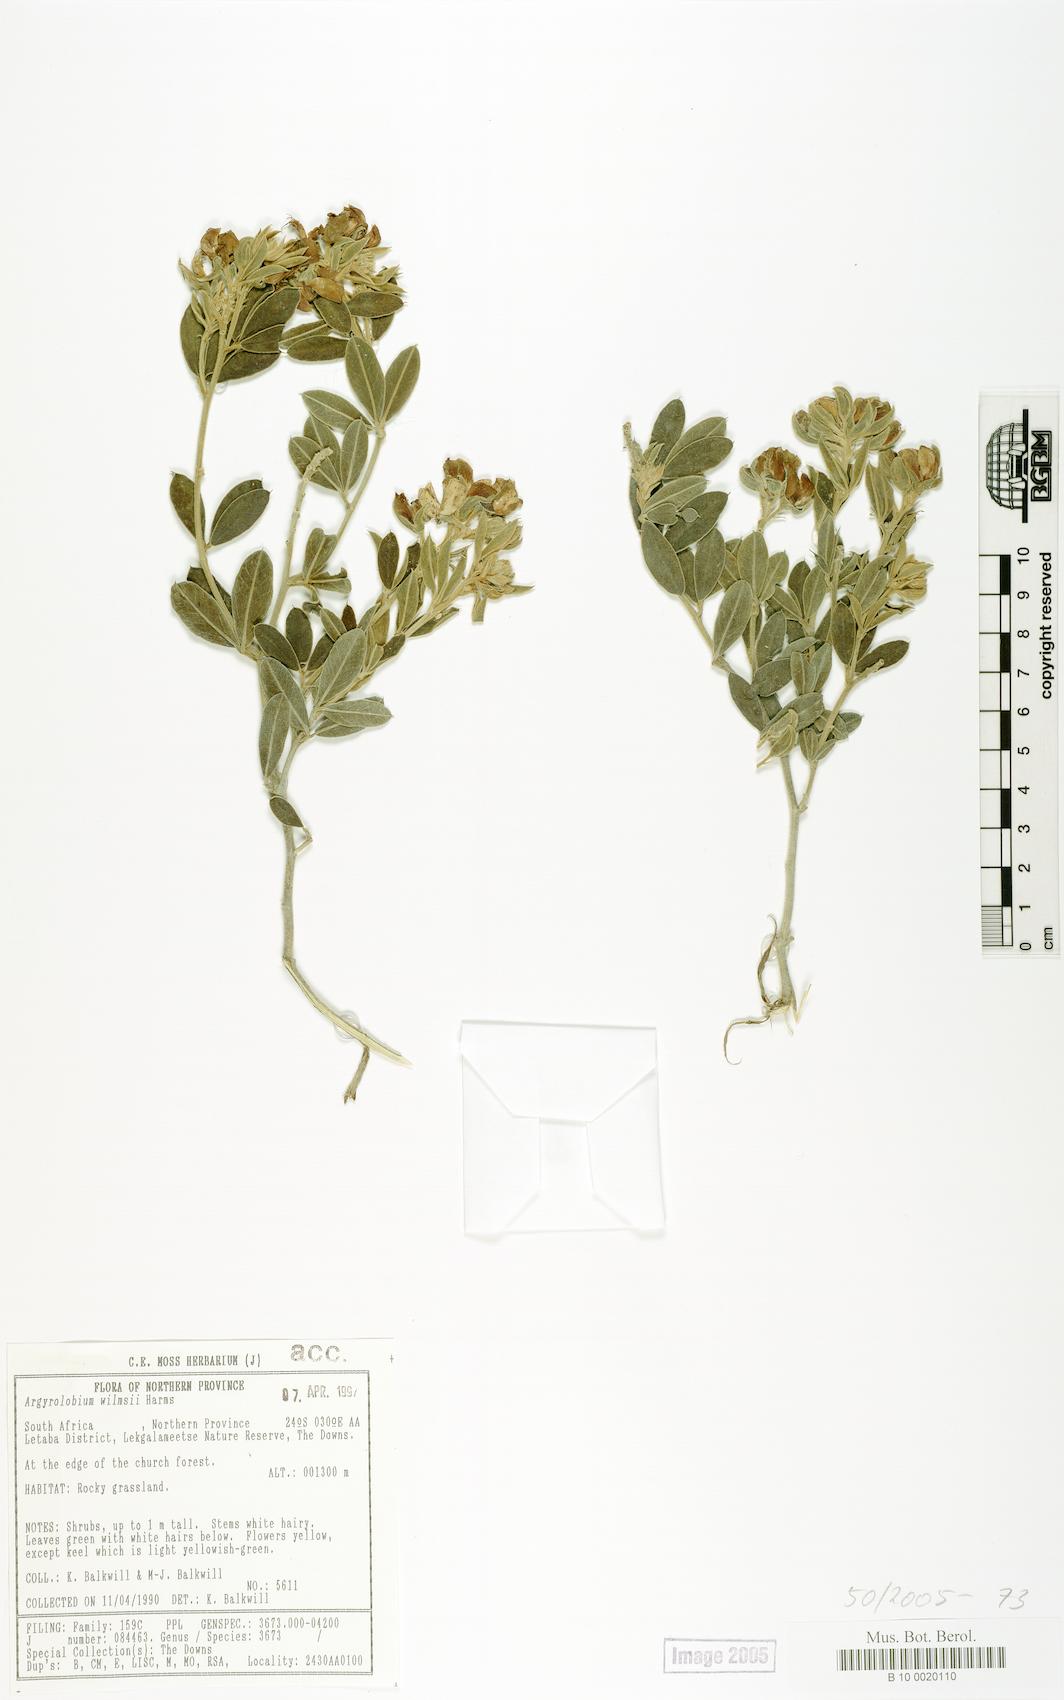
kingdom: Plantae
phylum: Tracheophyta
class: Magnoliopsida
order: Fabales
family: Fabaceae
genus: Argyrolobium
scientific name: Argyrolobium wilmsii
